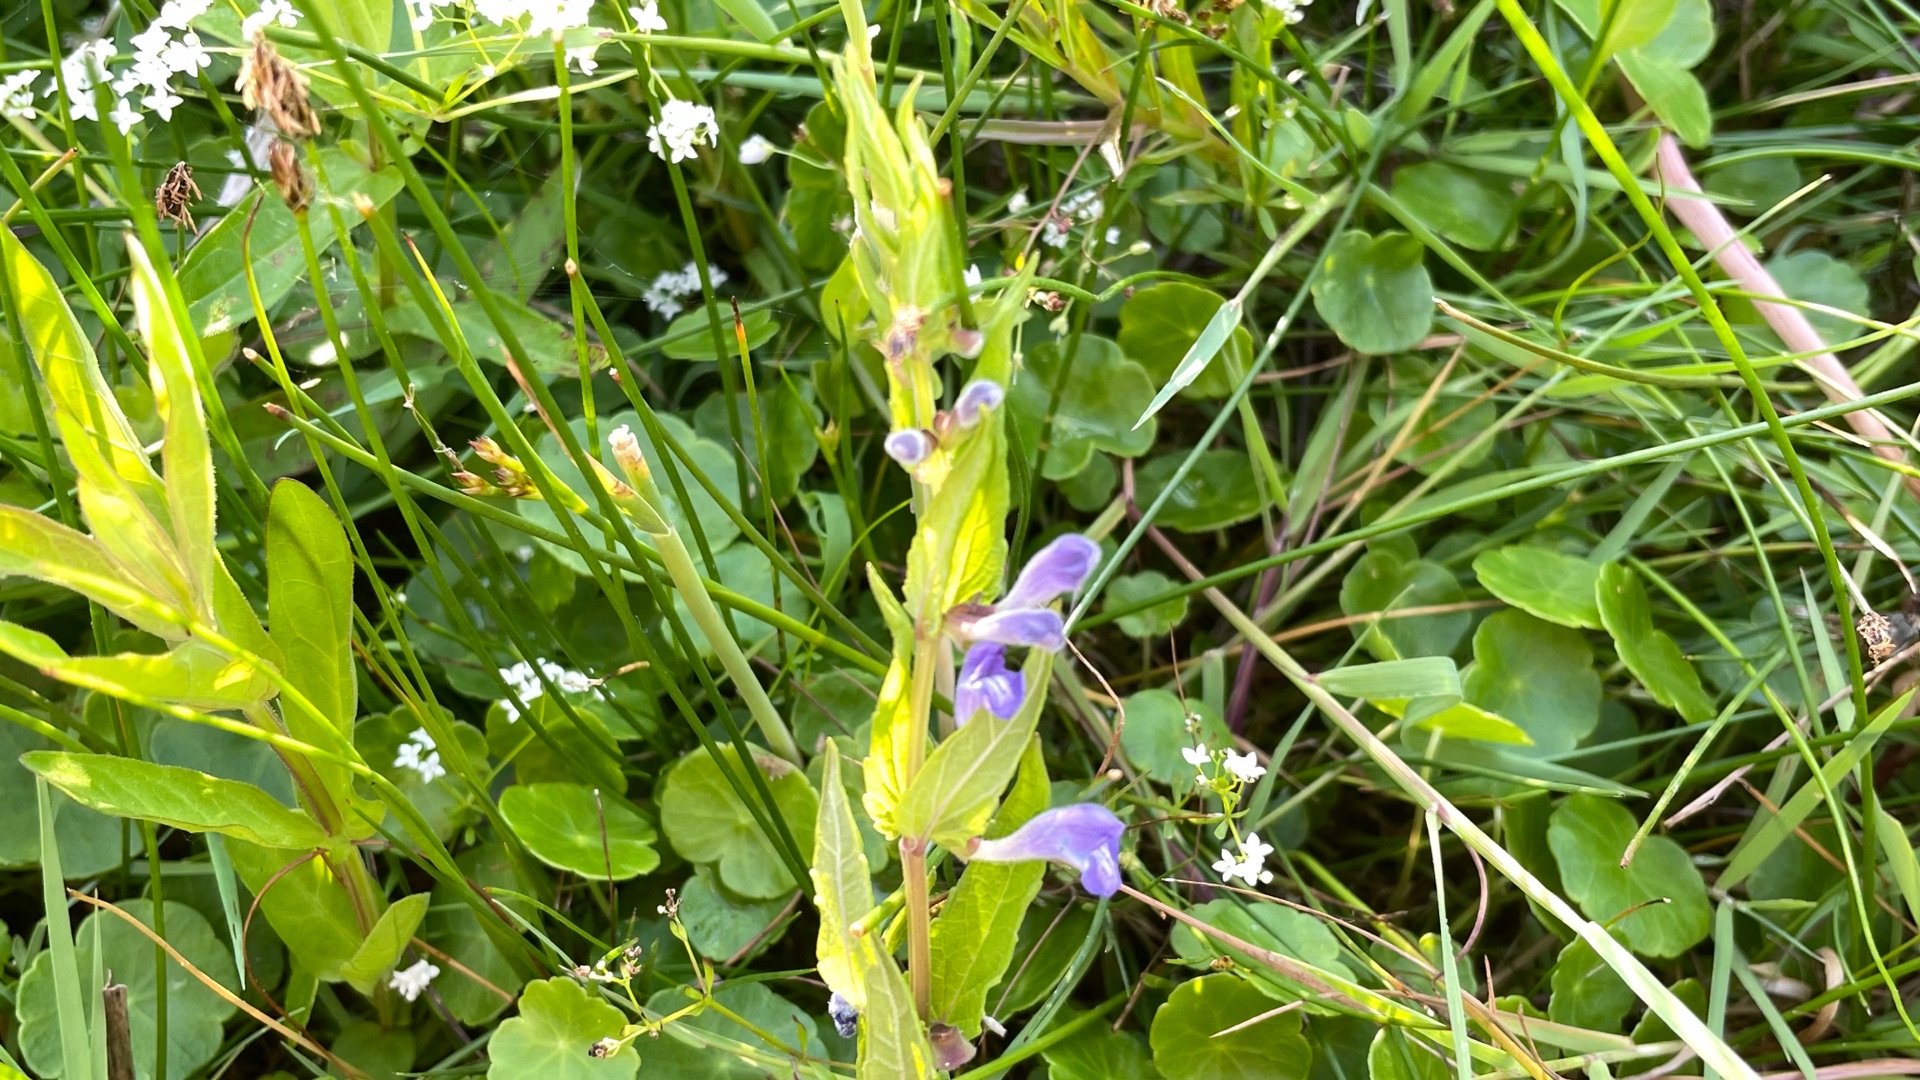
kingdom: Plantae
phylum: Tracheophyta
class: Magnoliopsida
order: Lamiales
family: Lamiaceae
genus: Scutellaria
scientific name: Scutellaria galericulata
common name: Almindelig skjolddrager
